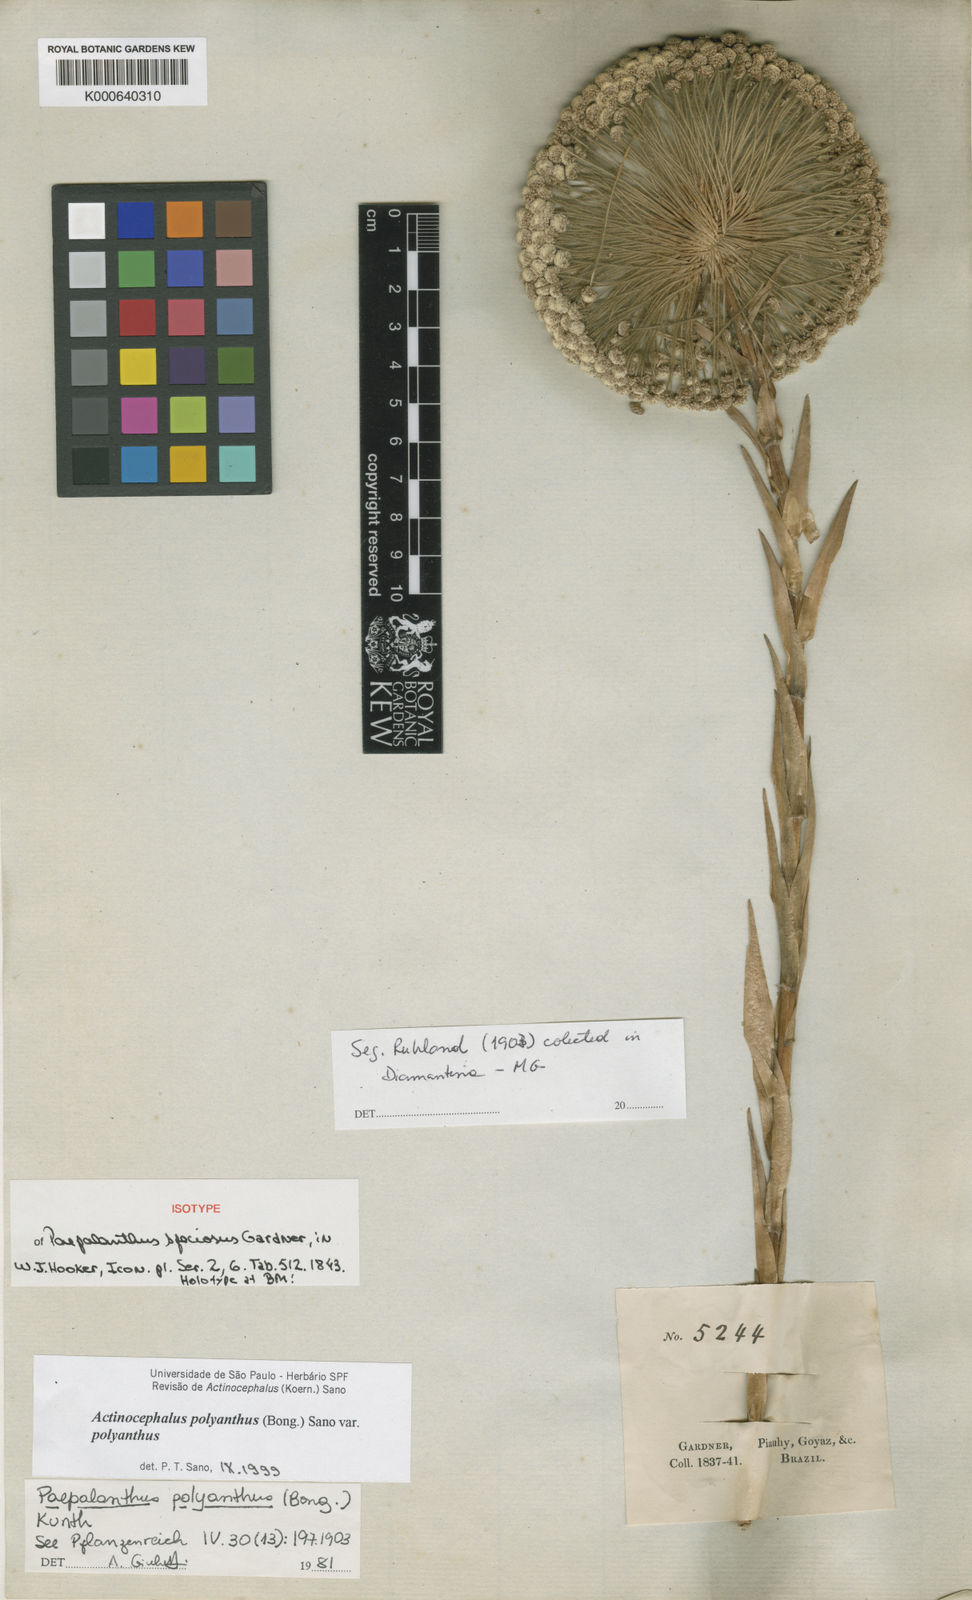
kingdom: Plantae
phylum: Tracheophyta
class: Liliopsida
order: Poales
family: Eriocaulaceae
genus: Paepalanthus
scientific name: Paepalanthus polyanthus
